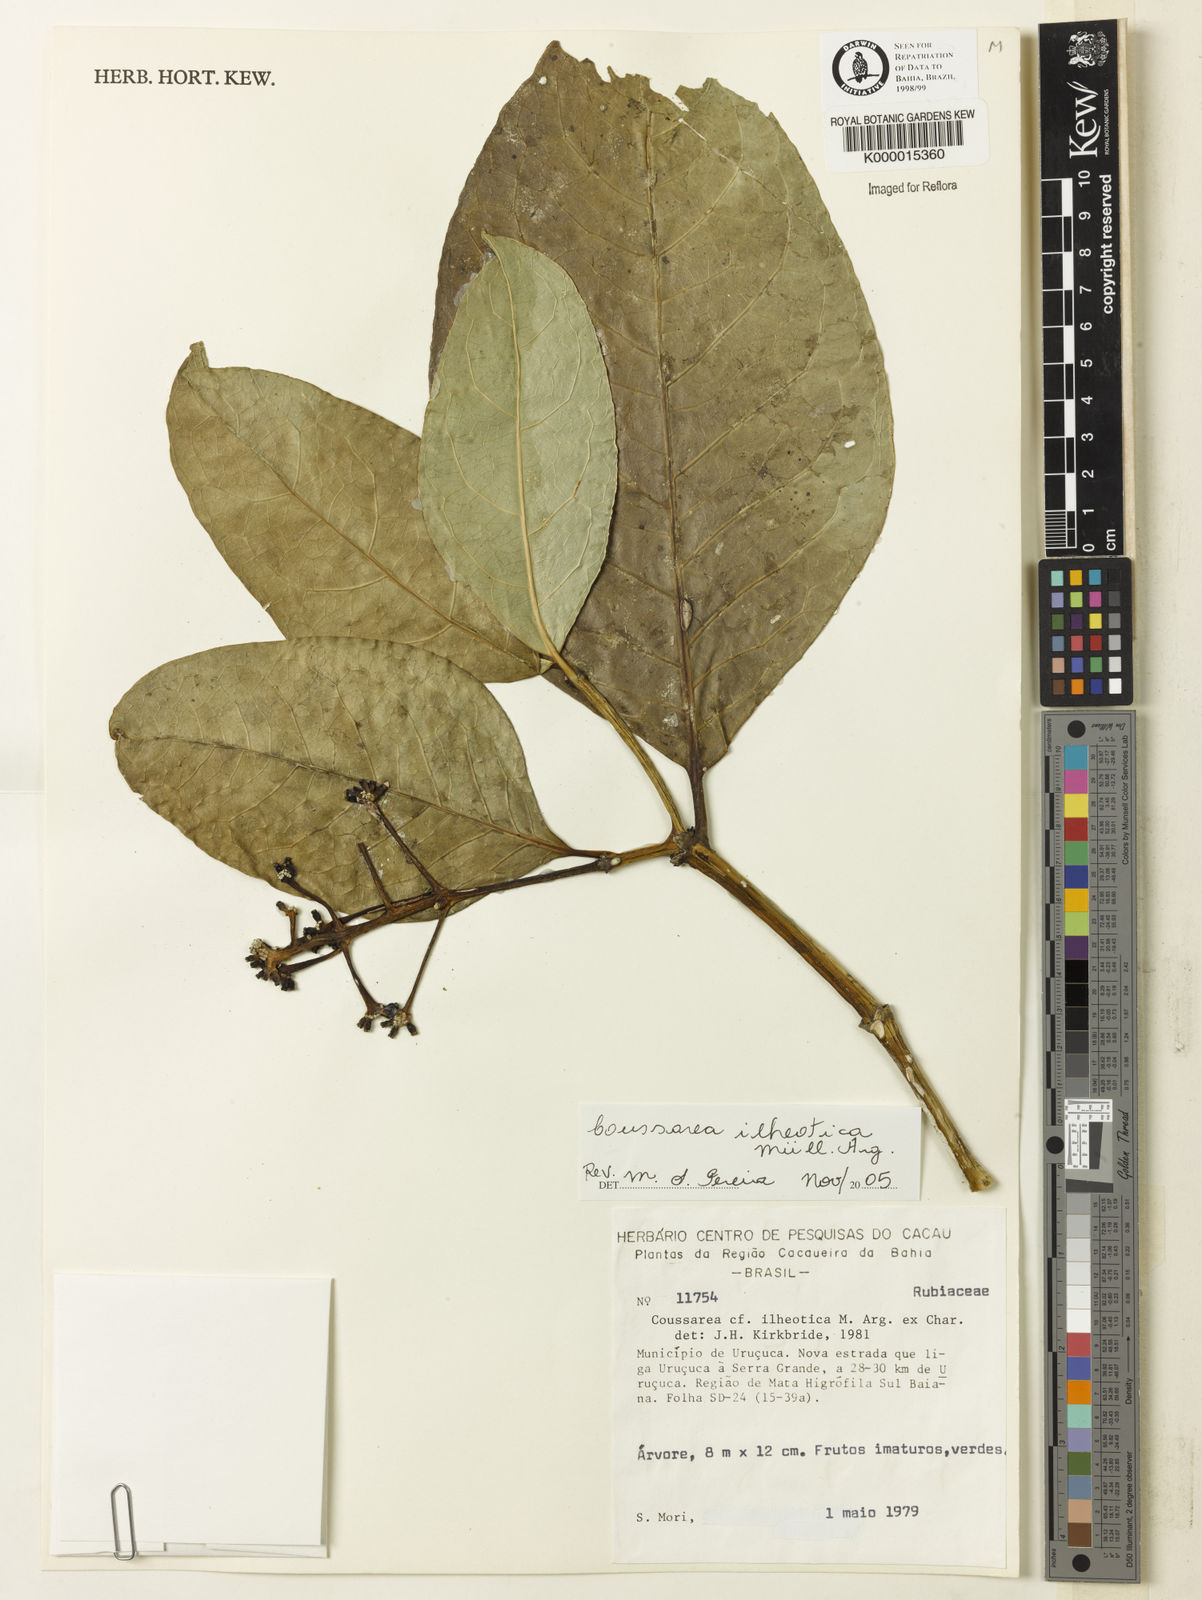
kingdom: Plantae
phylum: Tracheophyta
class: Magnoliopsida
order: Gentianales
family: Rubiaceae
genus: Coussarea
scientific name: Coussarea ilheotica
